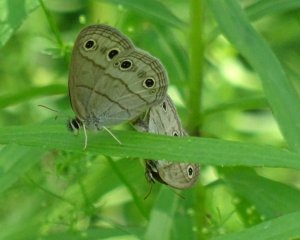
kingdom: Animalia
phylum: Arthropoda
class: Insecta
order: Lepidoptera
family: Nymphalidae
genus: Euptychia
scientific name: Euptychia cymela
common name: Little Wood Satyr
